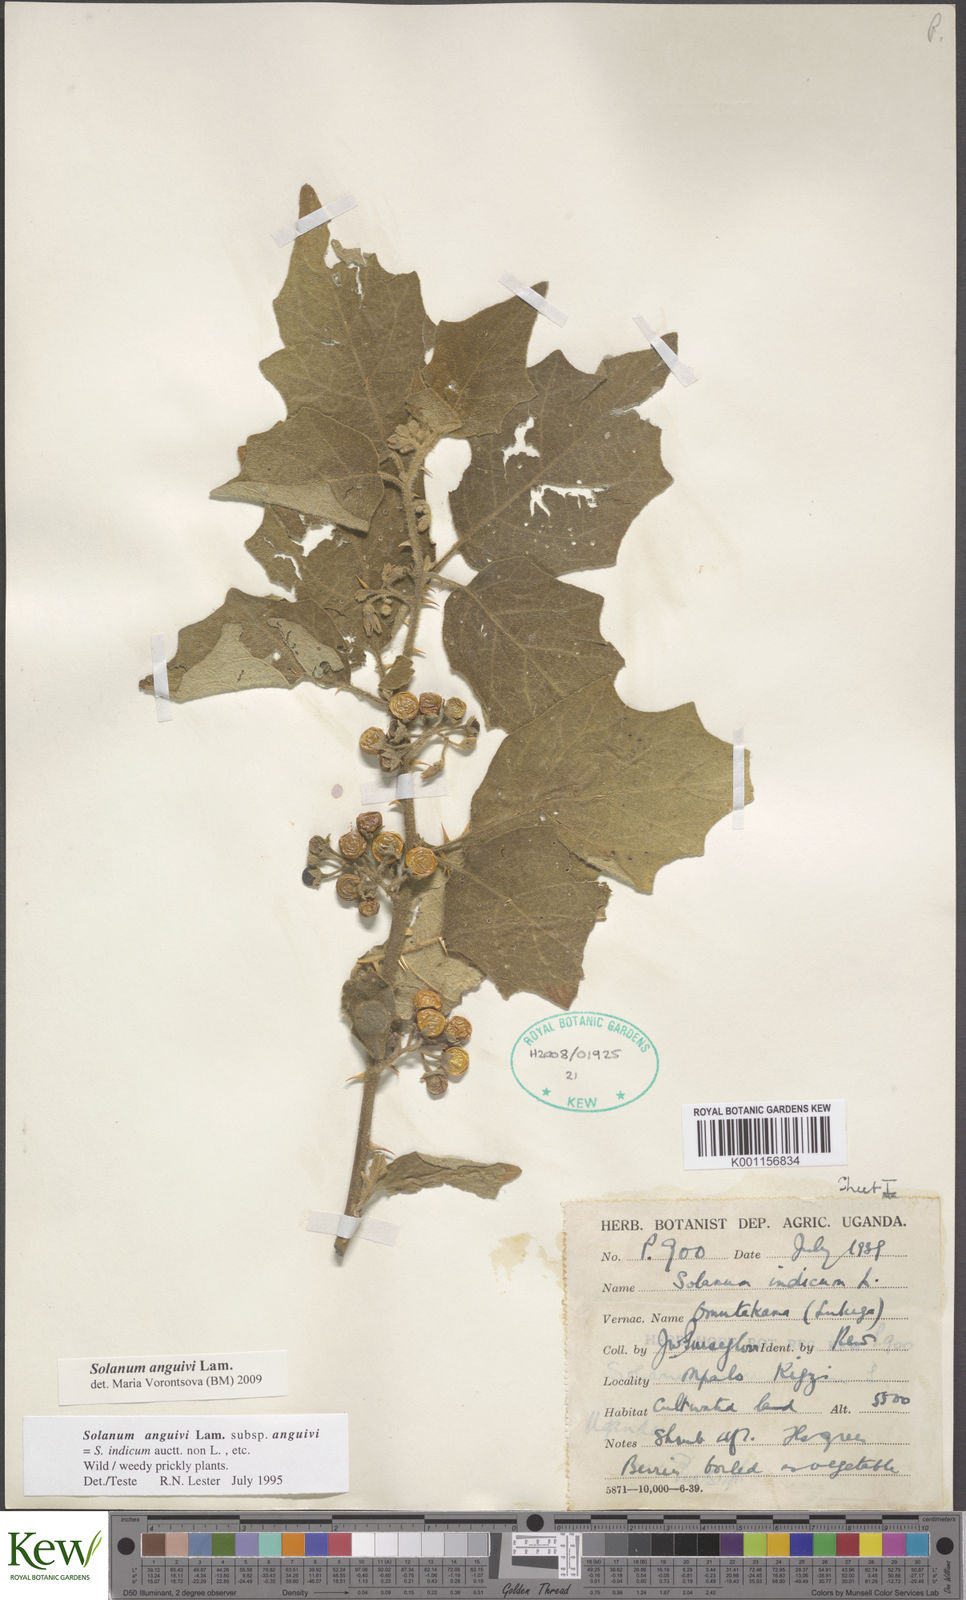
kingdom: Plantae
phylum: Tracheophyta
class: Magnoliopsida
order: Solanales
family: Solanaceae
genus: Solanum
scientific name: Solanum anguivi
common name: Forest bitterberry
